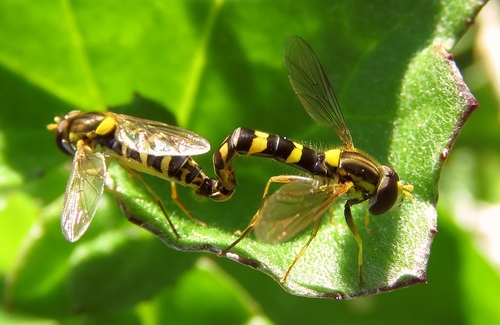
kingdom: Animalia
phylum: Arthropoda
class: Insecta
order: Diptera
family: Syrphidae
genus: Sphaerophoria
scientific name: Sphaerophoria scripta
